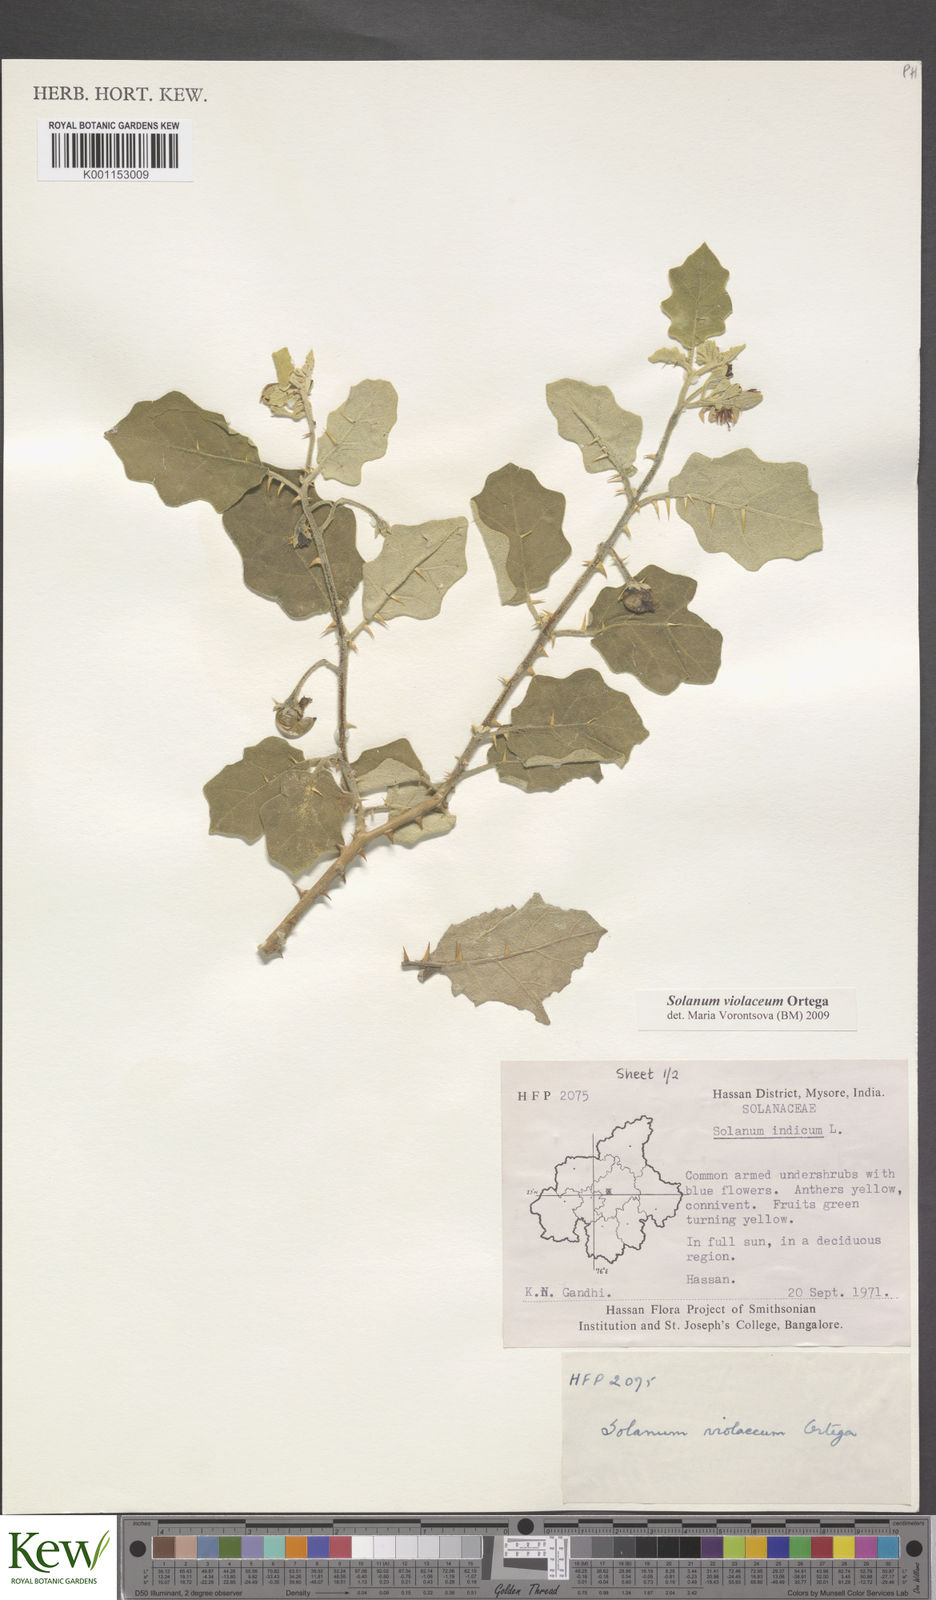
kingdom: Plantae
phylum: Tracheophyta
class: Magnoliopsida
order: Solanales
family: Solanaceae
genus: Solanum
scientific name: Solanum violaceum
